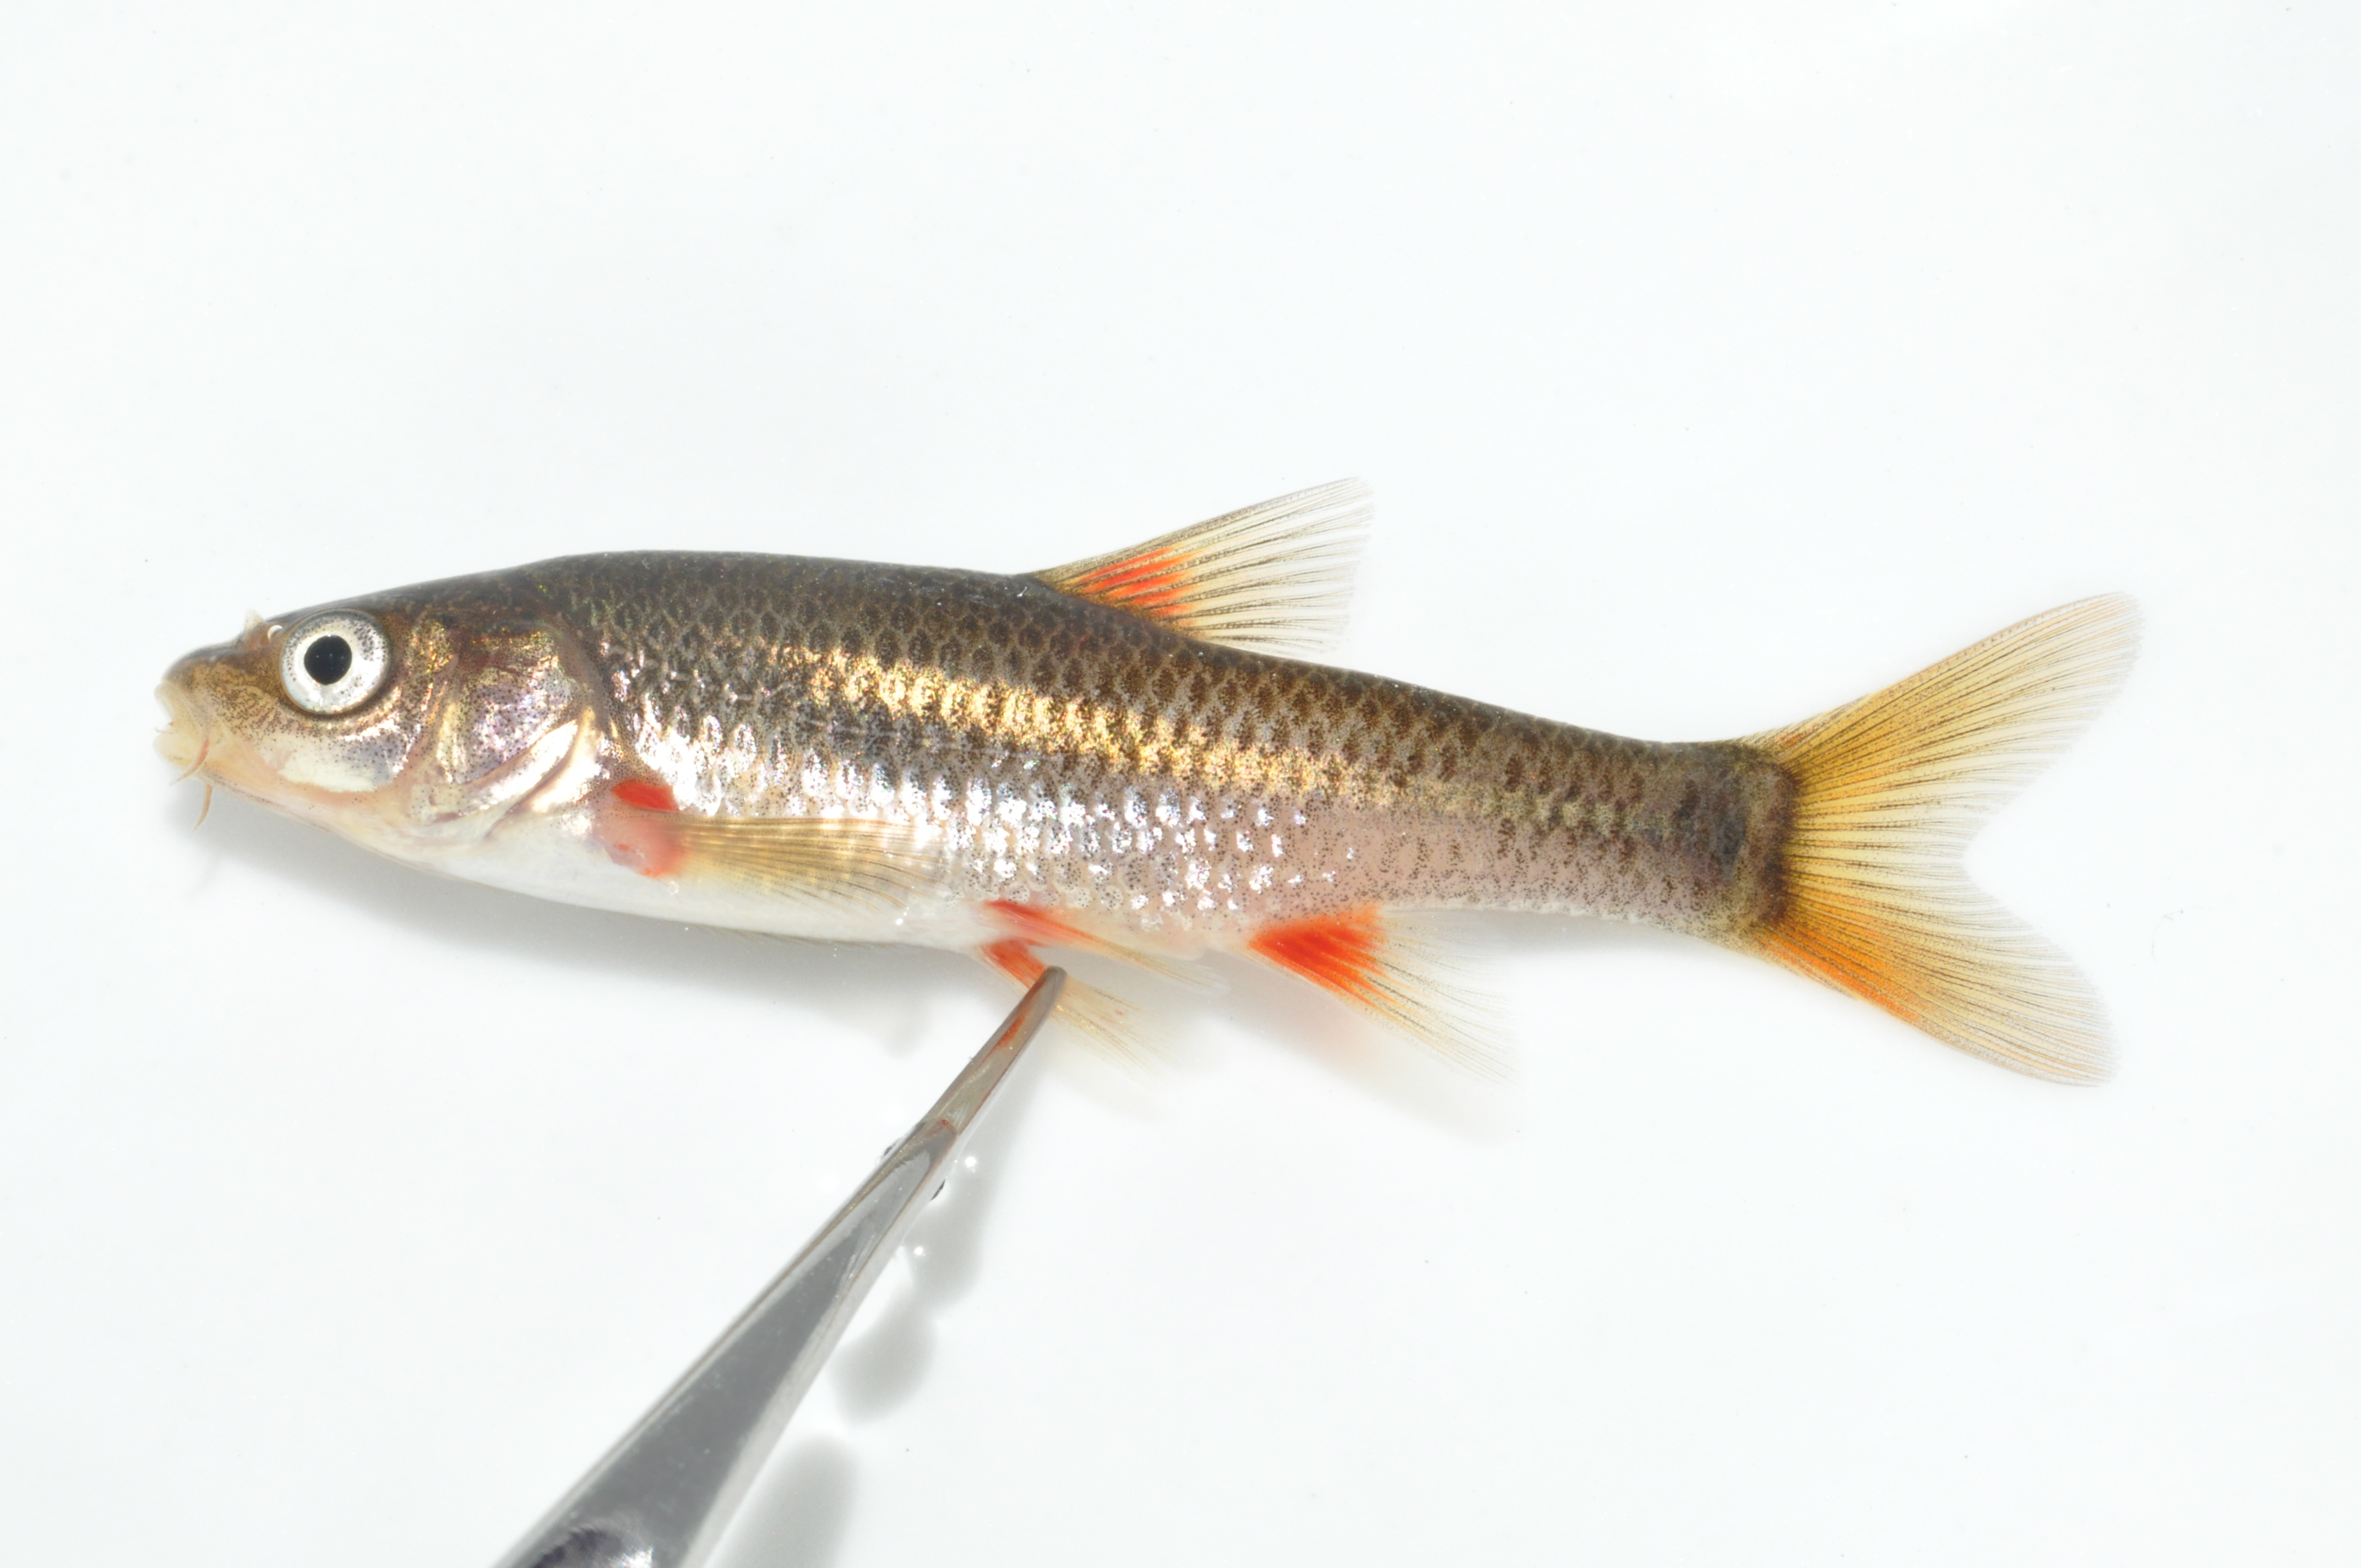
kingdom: Animalia
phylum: Chordata
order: Cypriniformes
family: Cyprinidae
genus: Pseudobarbus
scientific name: Pseudobarbus asper
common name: Smallscale redfin
